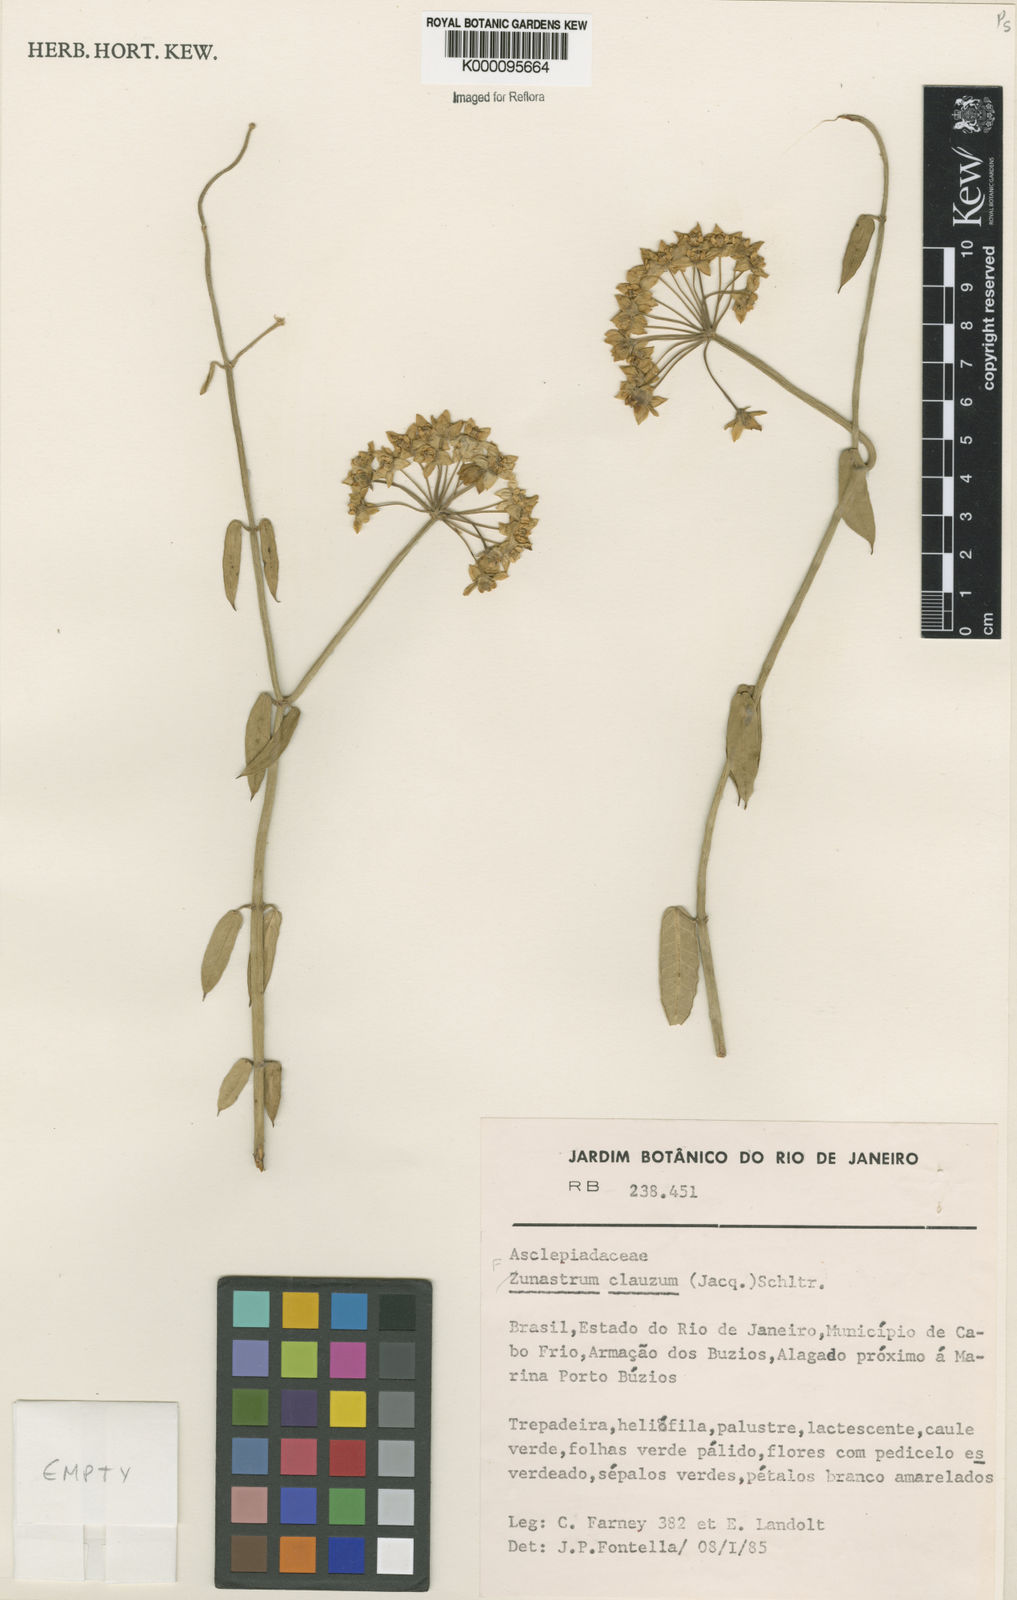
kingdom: Plantae
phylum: Tracheophyta
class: Magnoliopsida
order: Gentianales
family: Apocynaceae
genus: Funastrum
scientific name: Funastrum clausum
